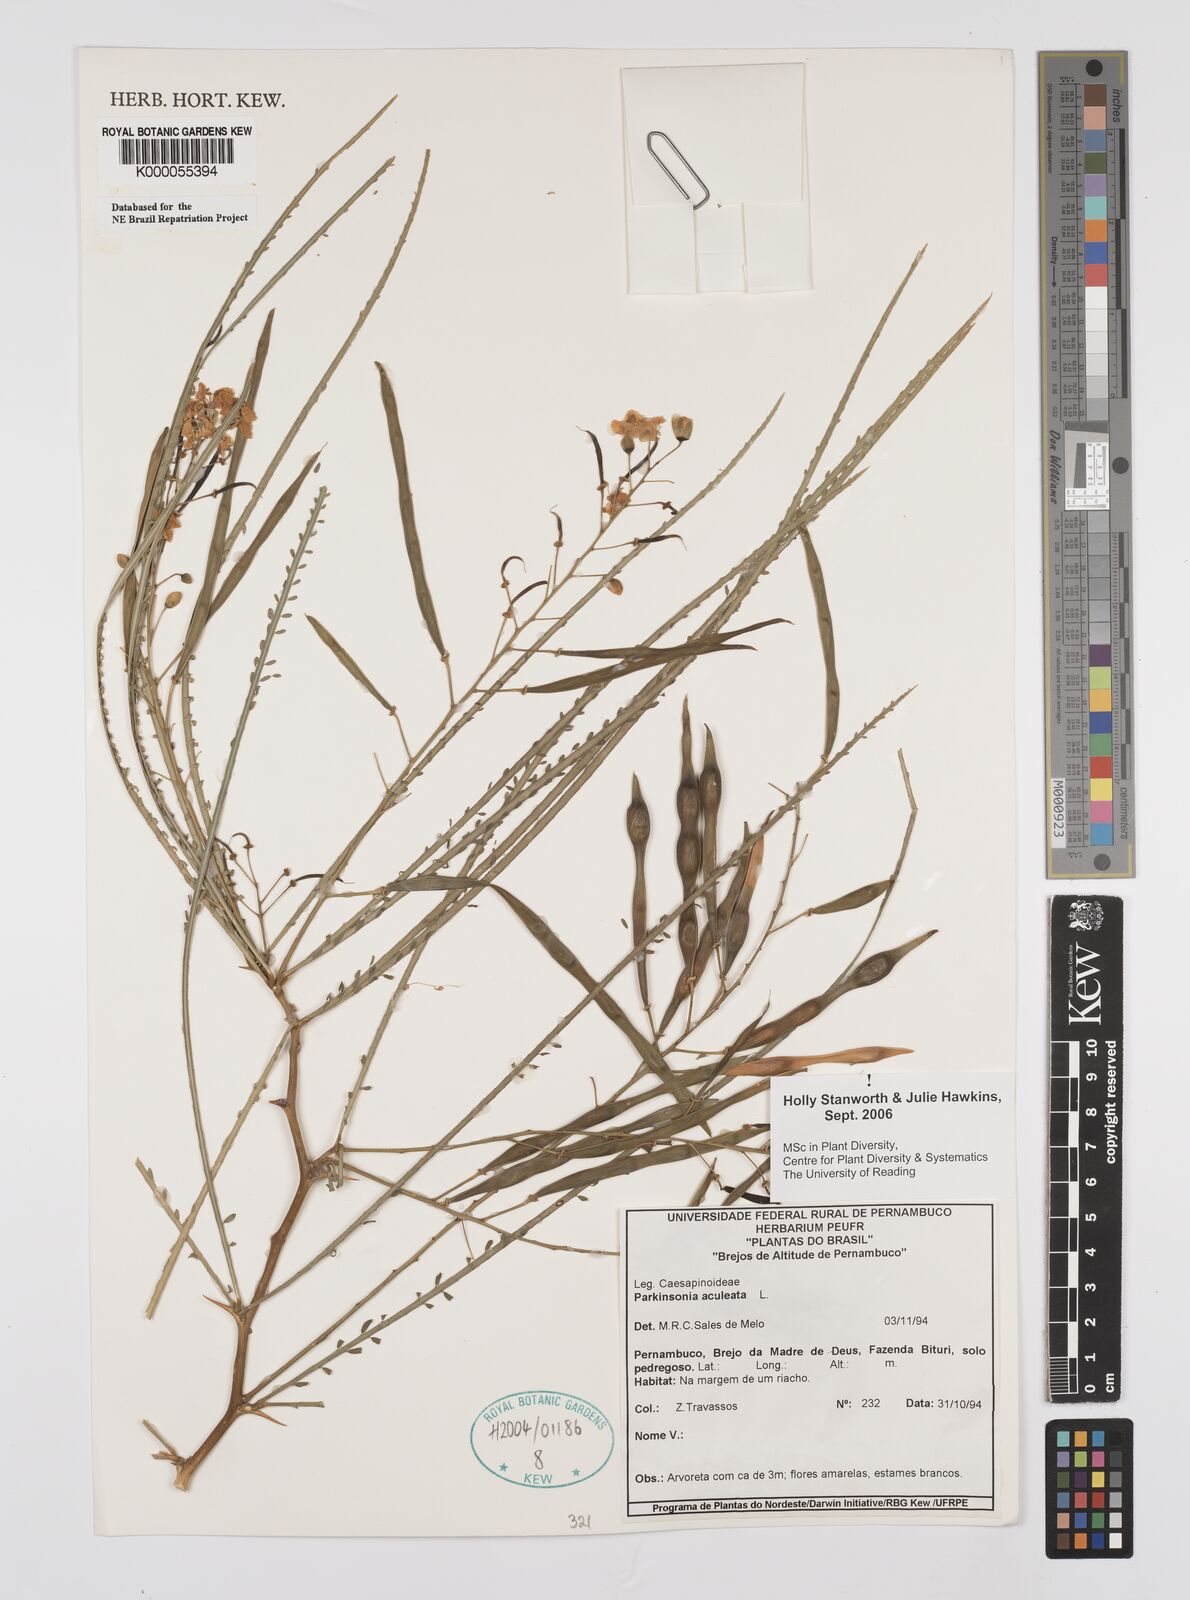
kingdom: Plantae
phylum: Tracheophyta
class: Magnoliopsida
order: Fabales
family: Fabaceae
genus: Parkinsonia
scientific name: Parkinsonia aculeata
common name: Jerusalem thorn
